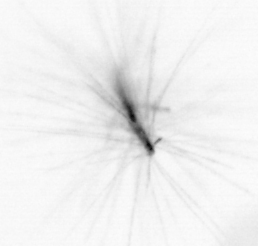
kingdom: Chromista
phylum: Ochrophyta
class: Bacillariophyceae
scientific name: Bacillariophyceae
